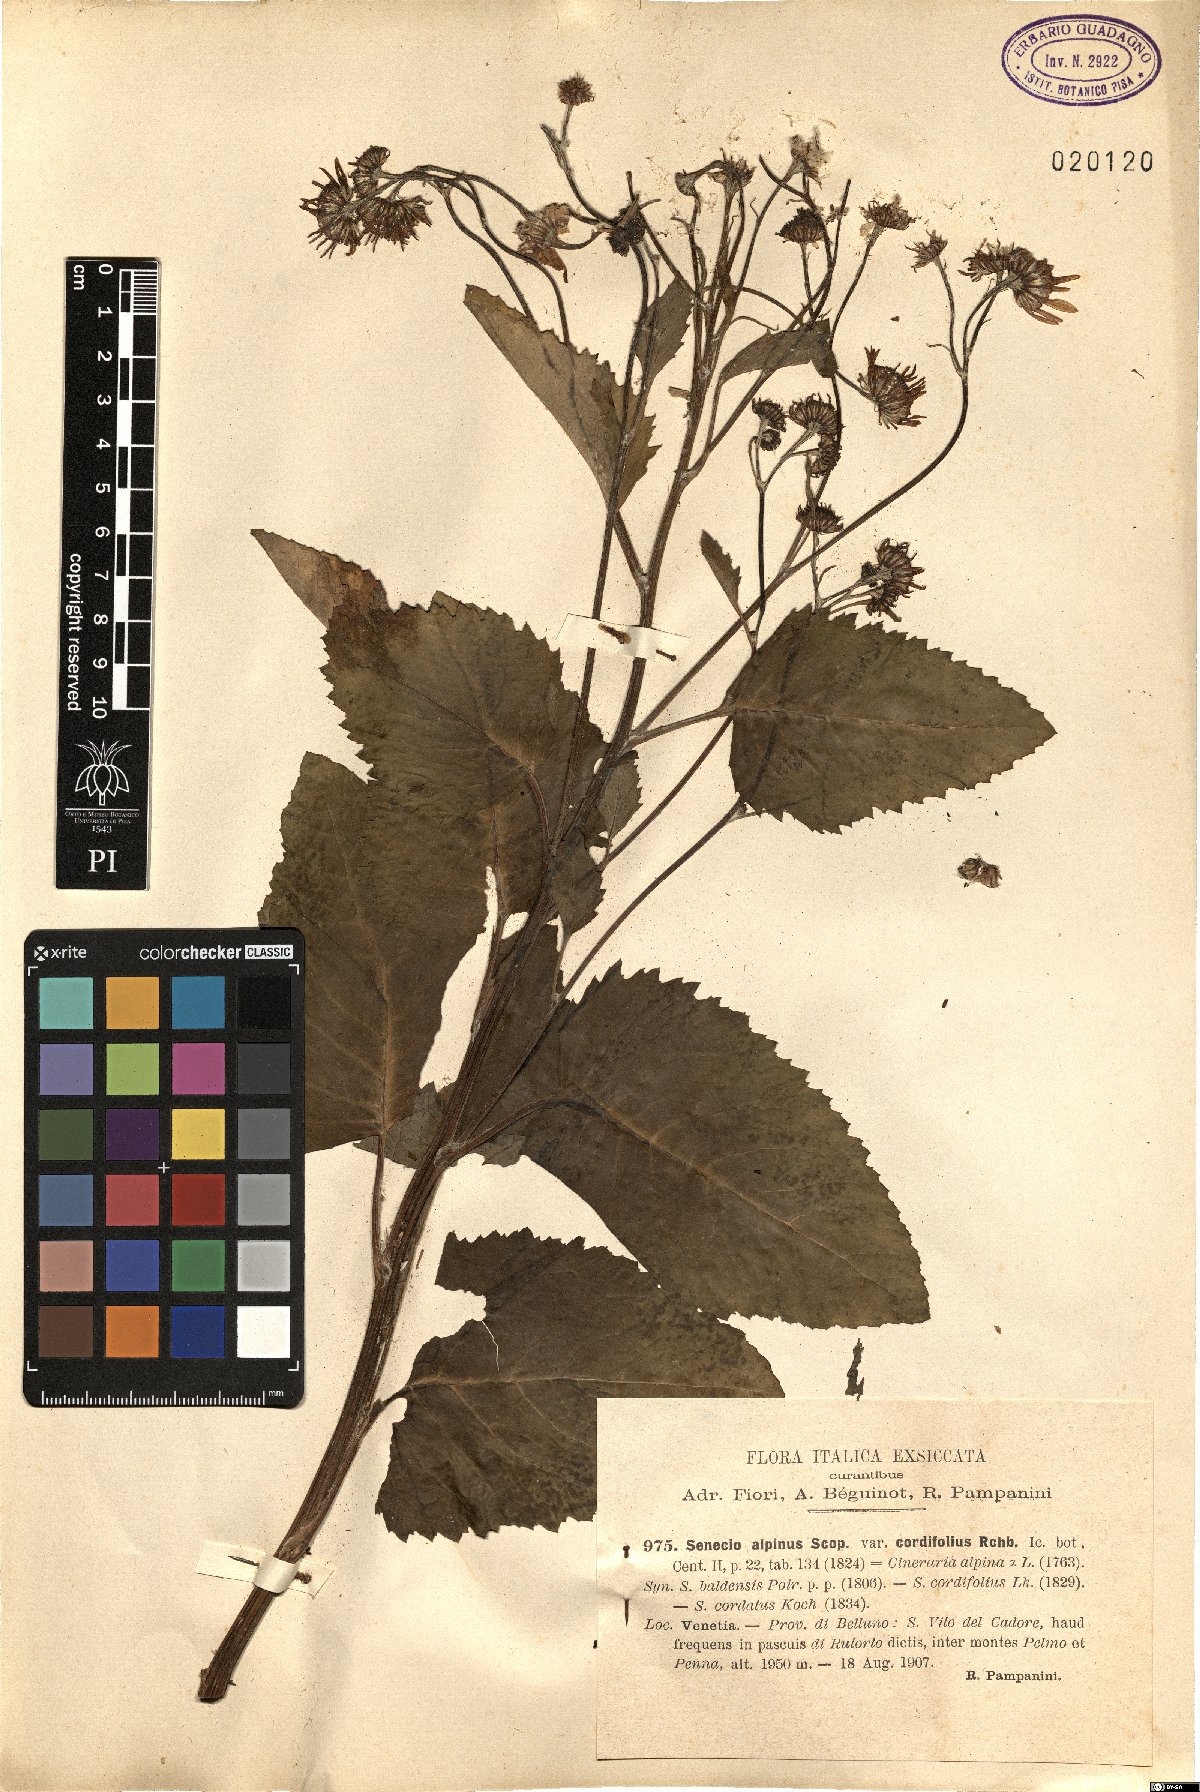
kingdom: Plantae
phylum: Tracheophyta
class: Magnoliopsida
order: Asterales
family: Asteraceae
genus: Jacobaea
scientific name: Jacobaea alpina
